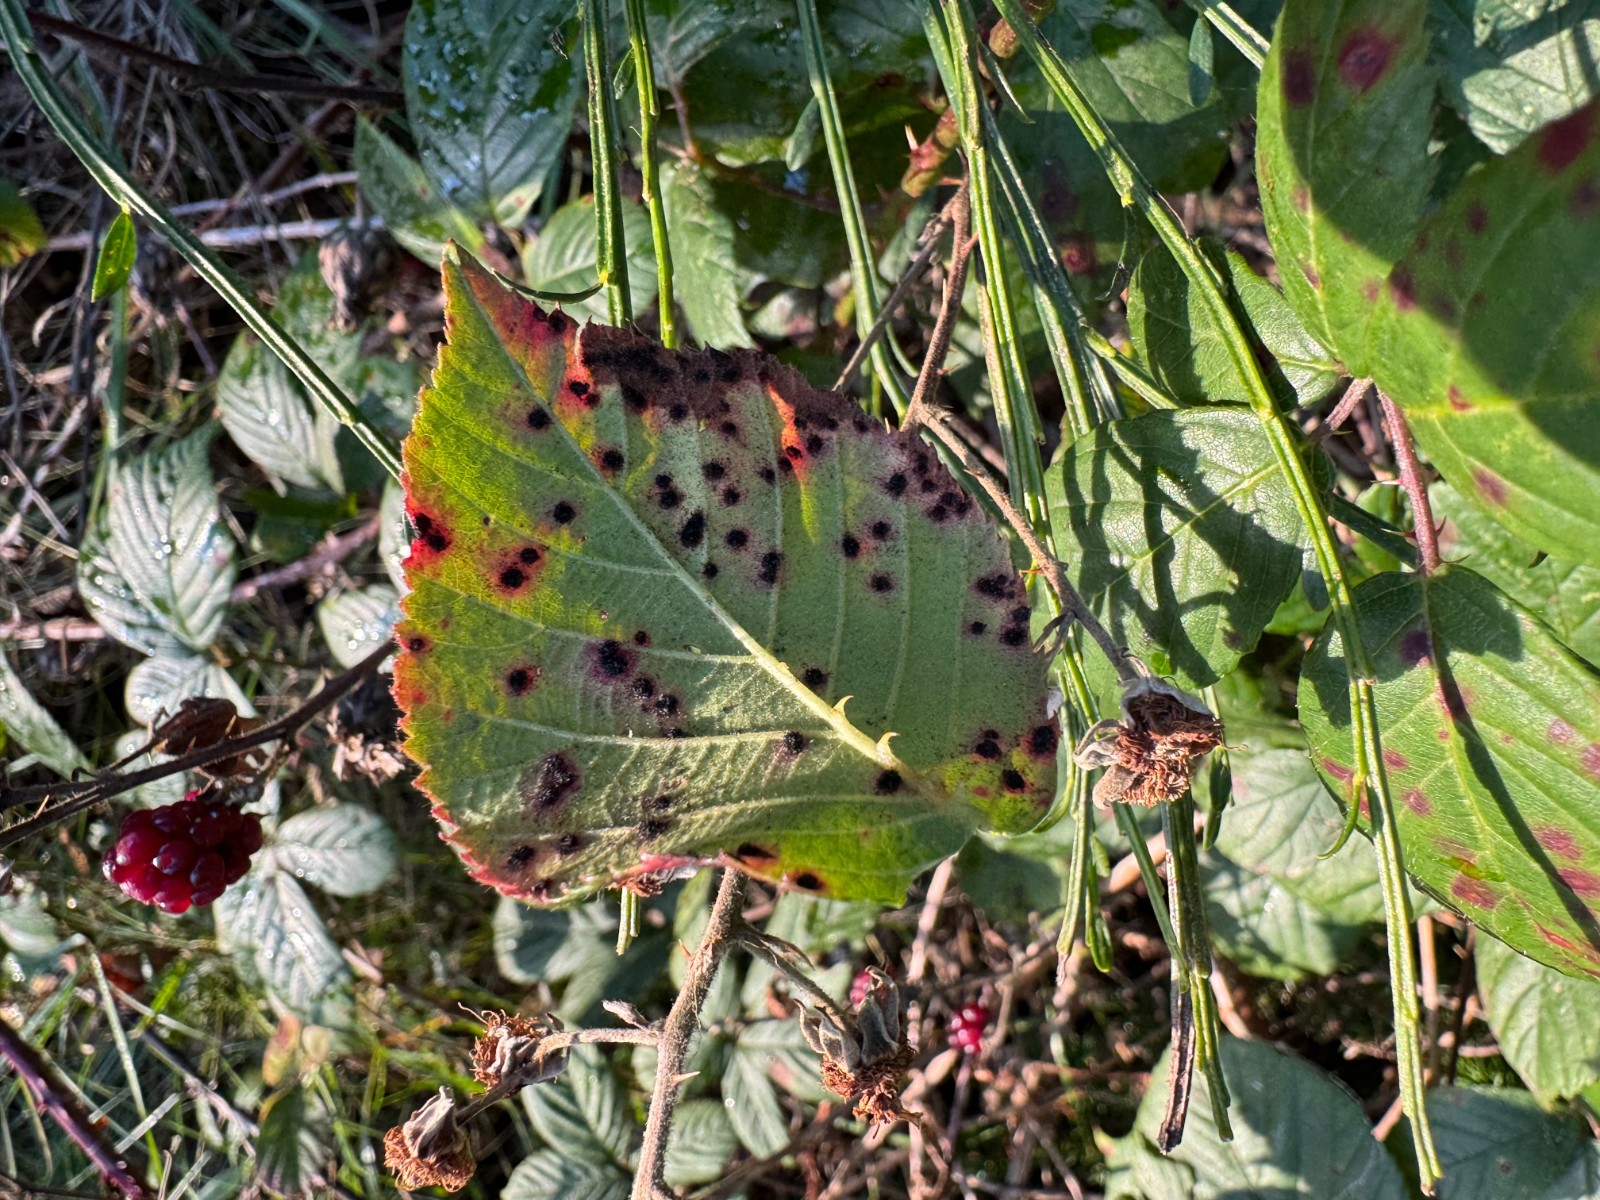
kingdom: Fungi
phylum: Basidiomycota
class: Pucciniomycetes
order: Pucciniales
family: Phragmidiaceae
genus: Phragmidium
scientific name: Phragmidium violaceum
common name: violet flercellerust
